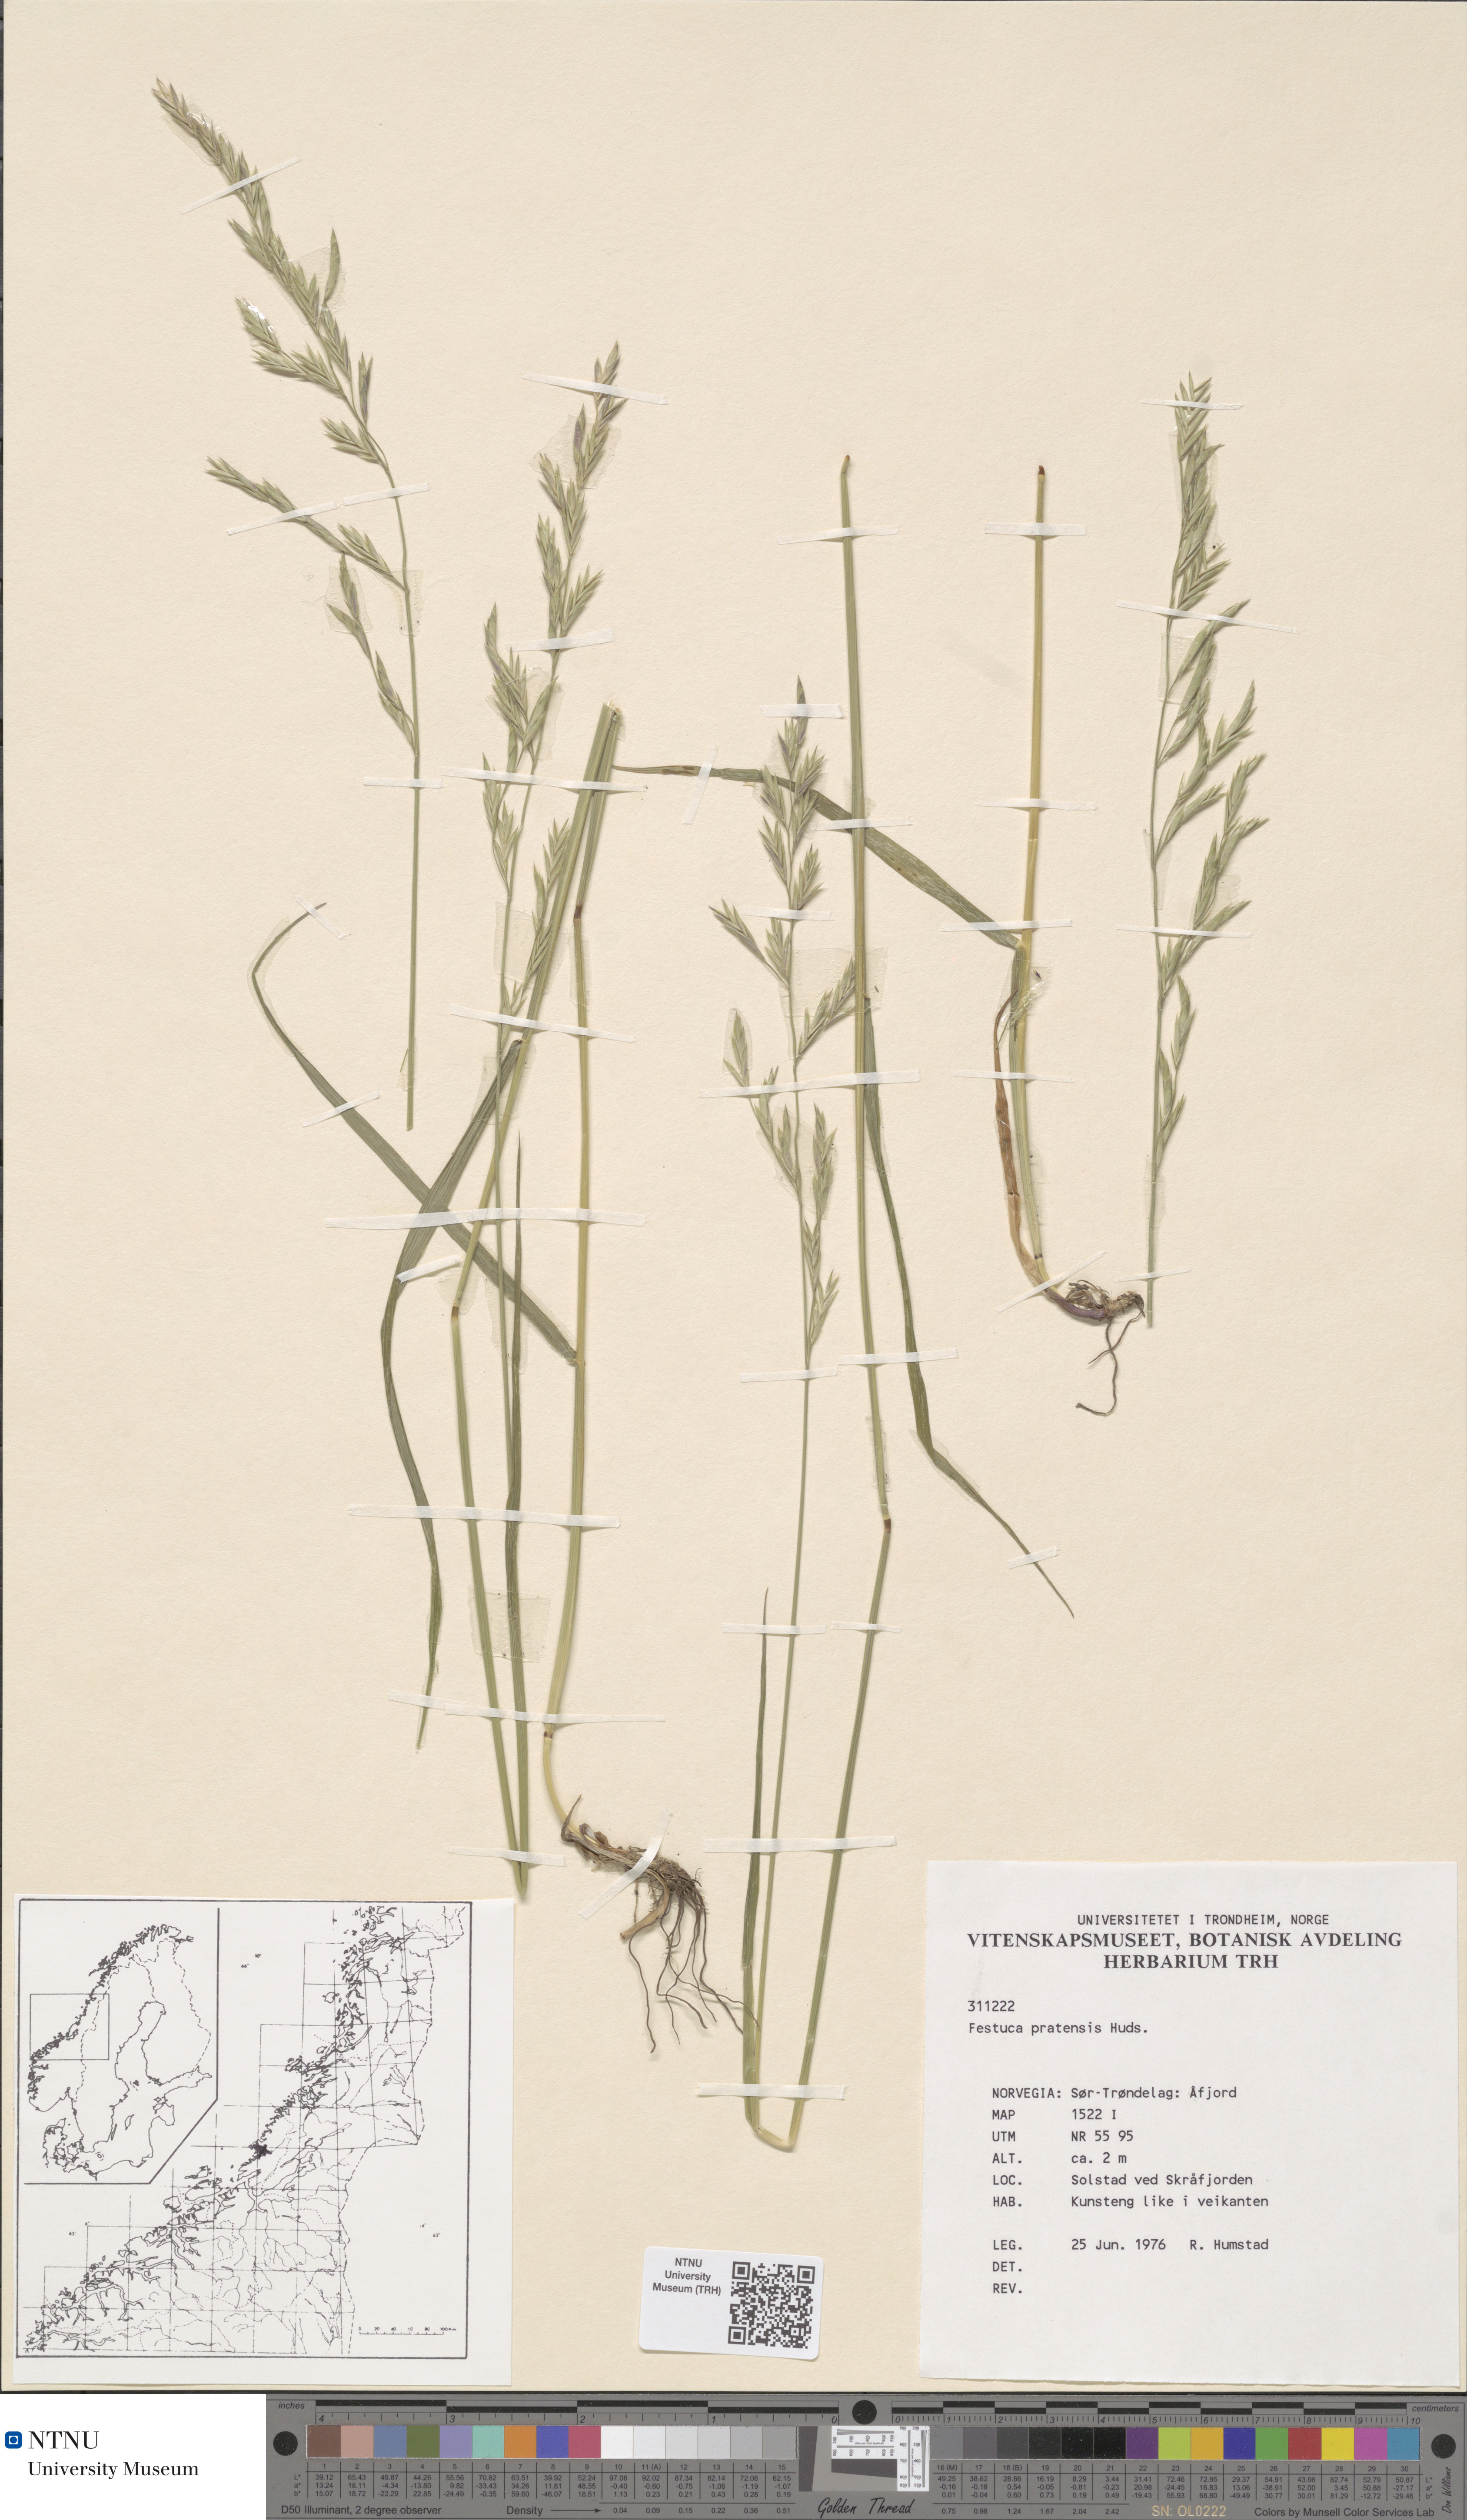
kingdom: Plantae
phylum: Tracheophyta
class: Liliopsida
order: Poales
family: Poaceae
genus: Lolium
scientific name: Lolium pratense
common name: Dover grass
